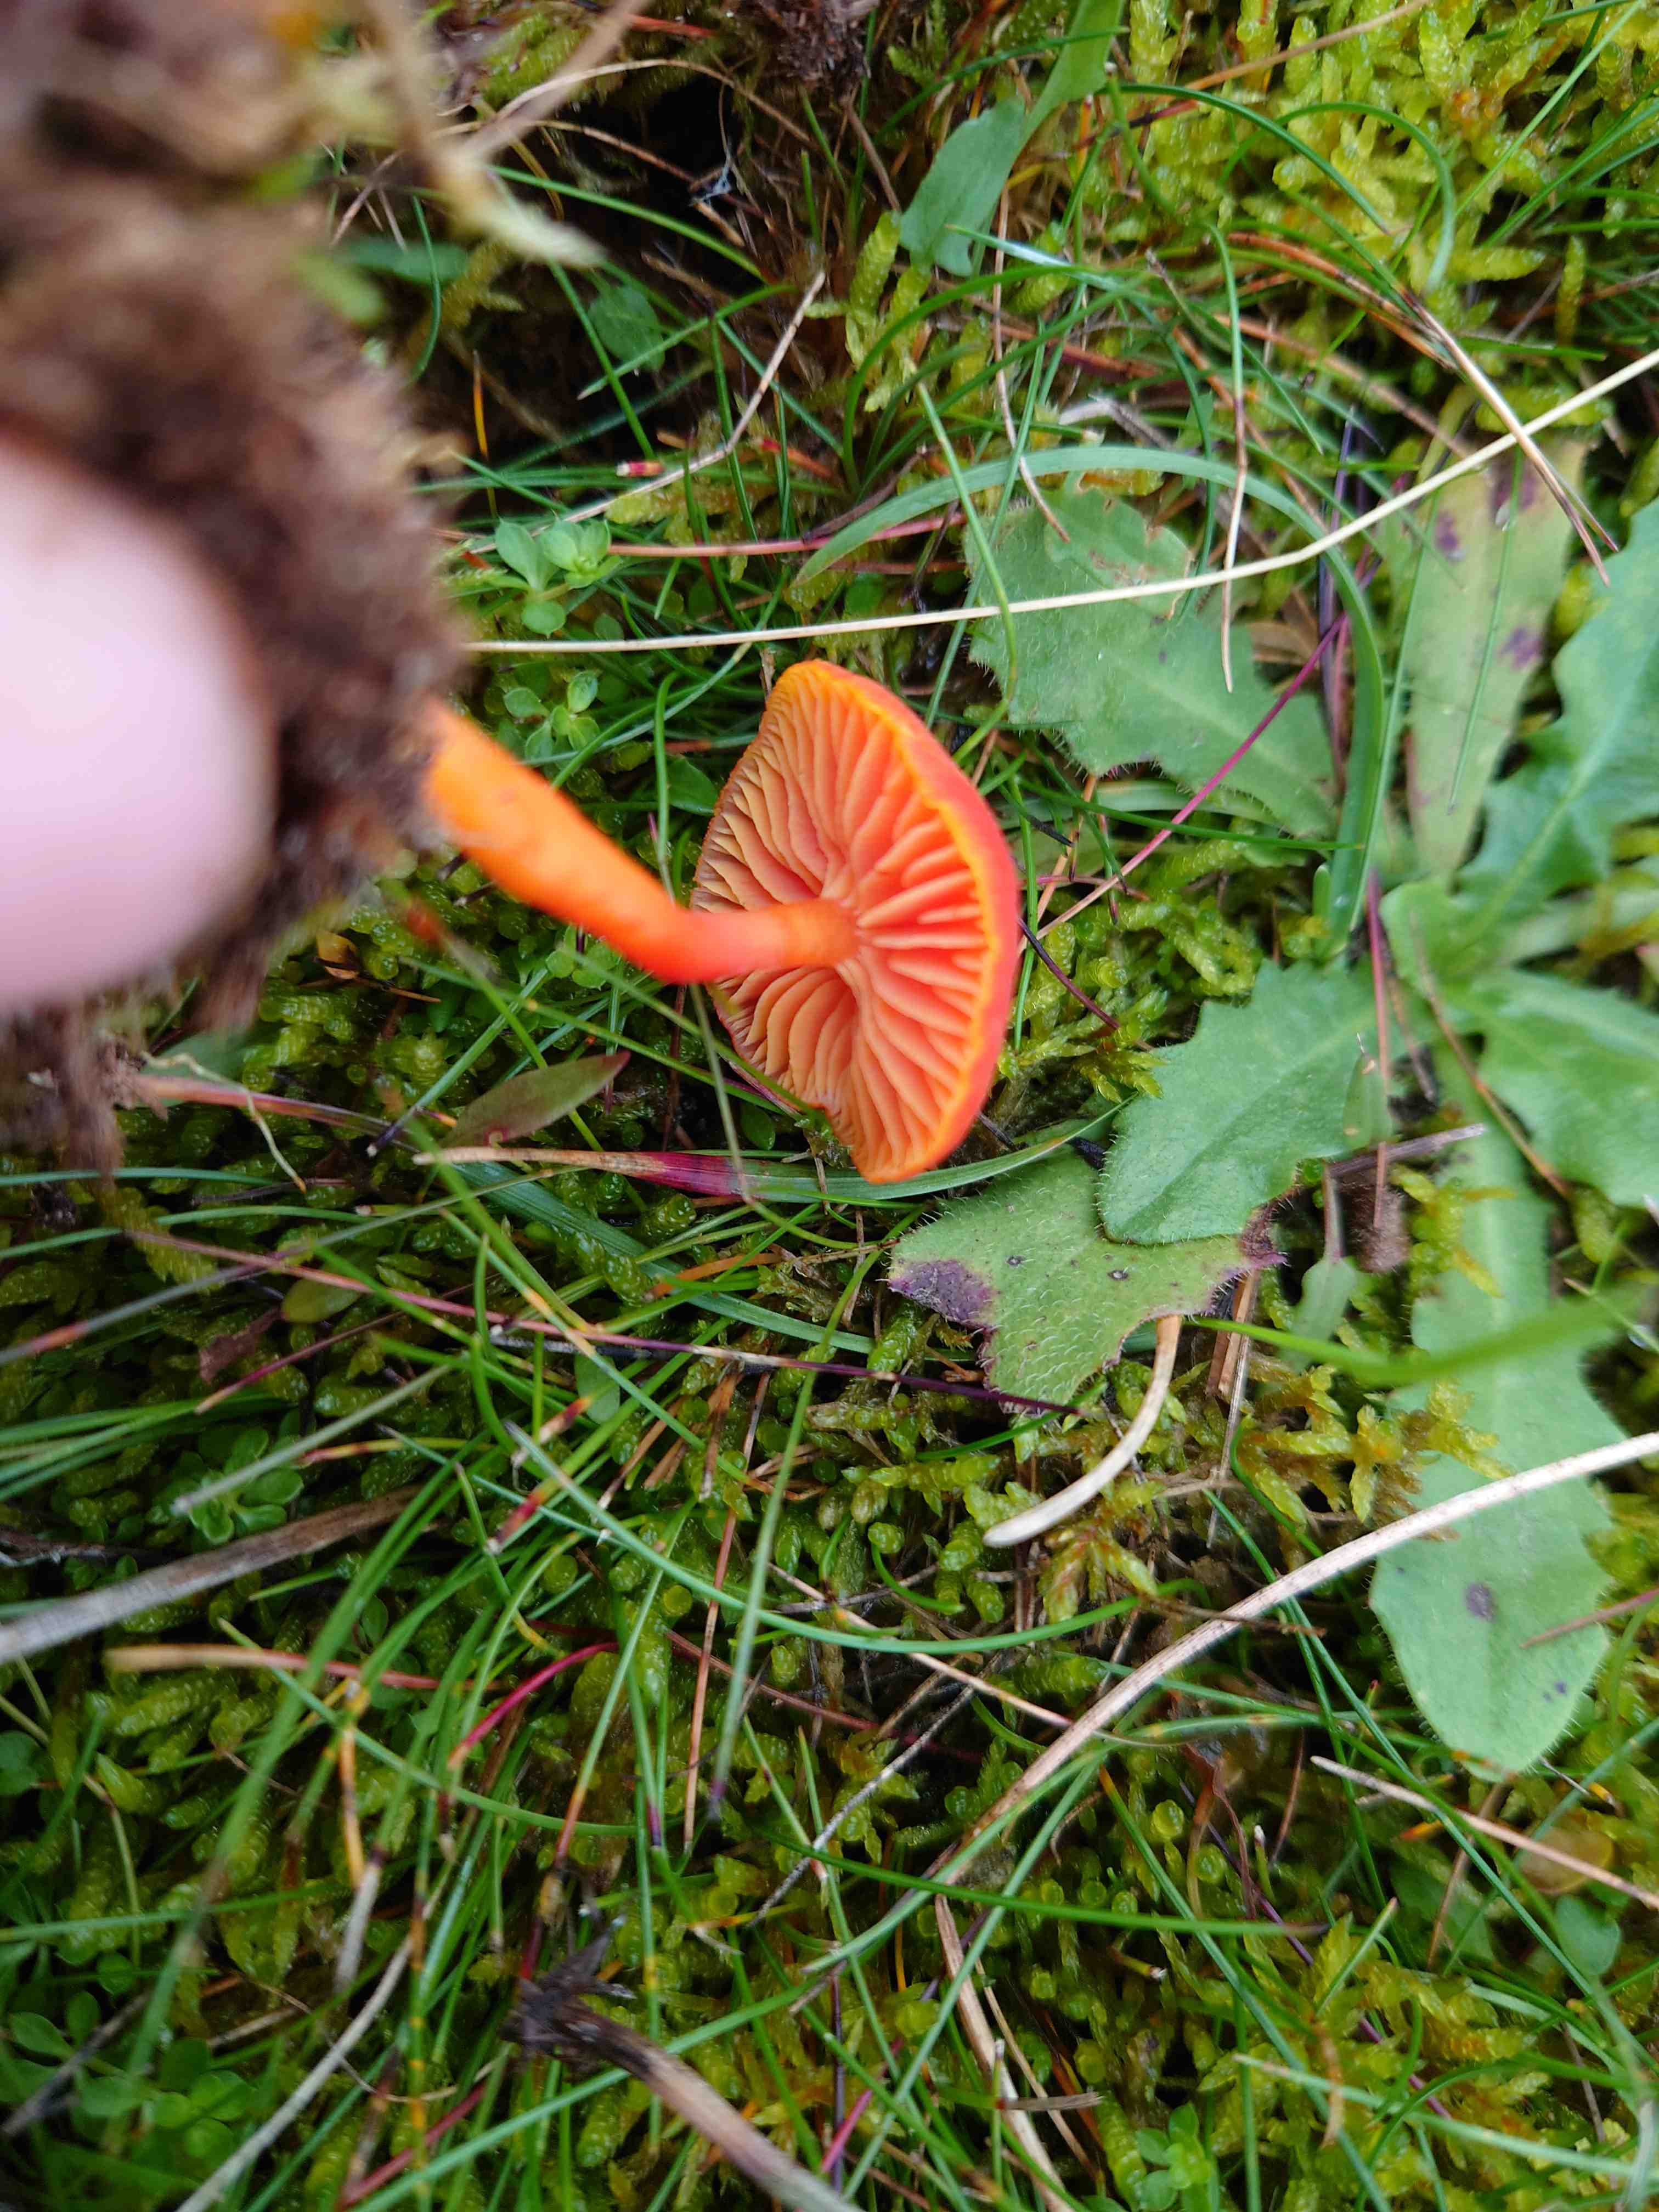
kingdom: Fungi
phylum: Basidiomycota
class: Agaricomycetes
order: Agaricales
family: Hygrophoraceae
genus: Hygrocybe
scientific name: Hygrocybe miniata
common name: mønje-vokshat
